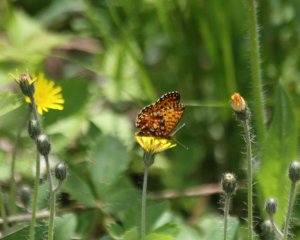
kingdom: Animalia
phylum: Arthropoda
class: Insecta
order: Lepidoptera
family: Nymphalidae
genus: Boloria
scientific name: Boloria selene
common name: Silver-bordered Fritillary
